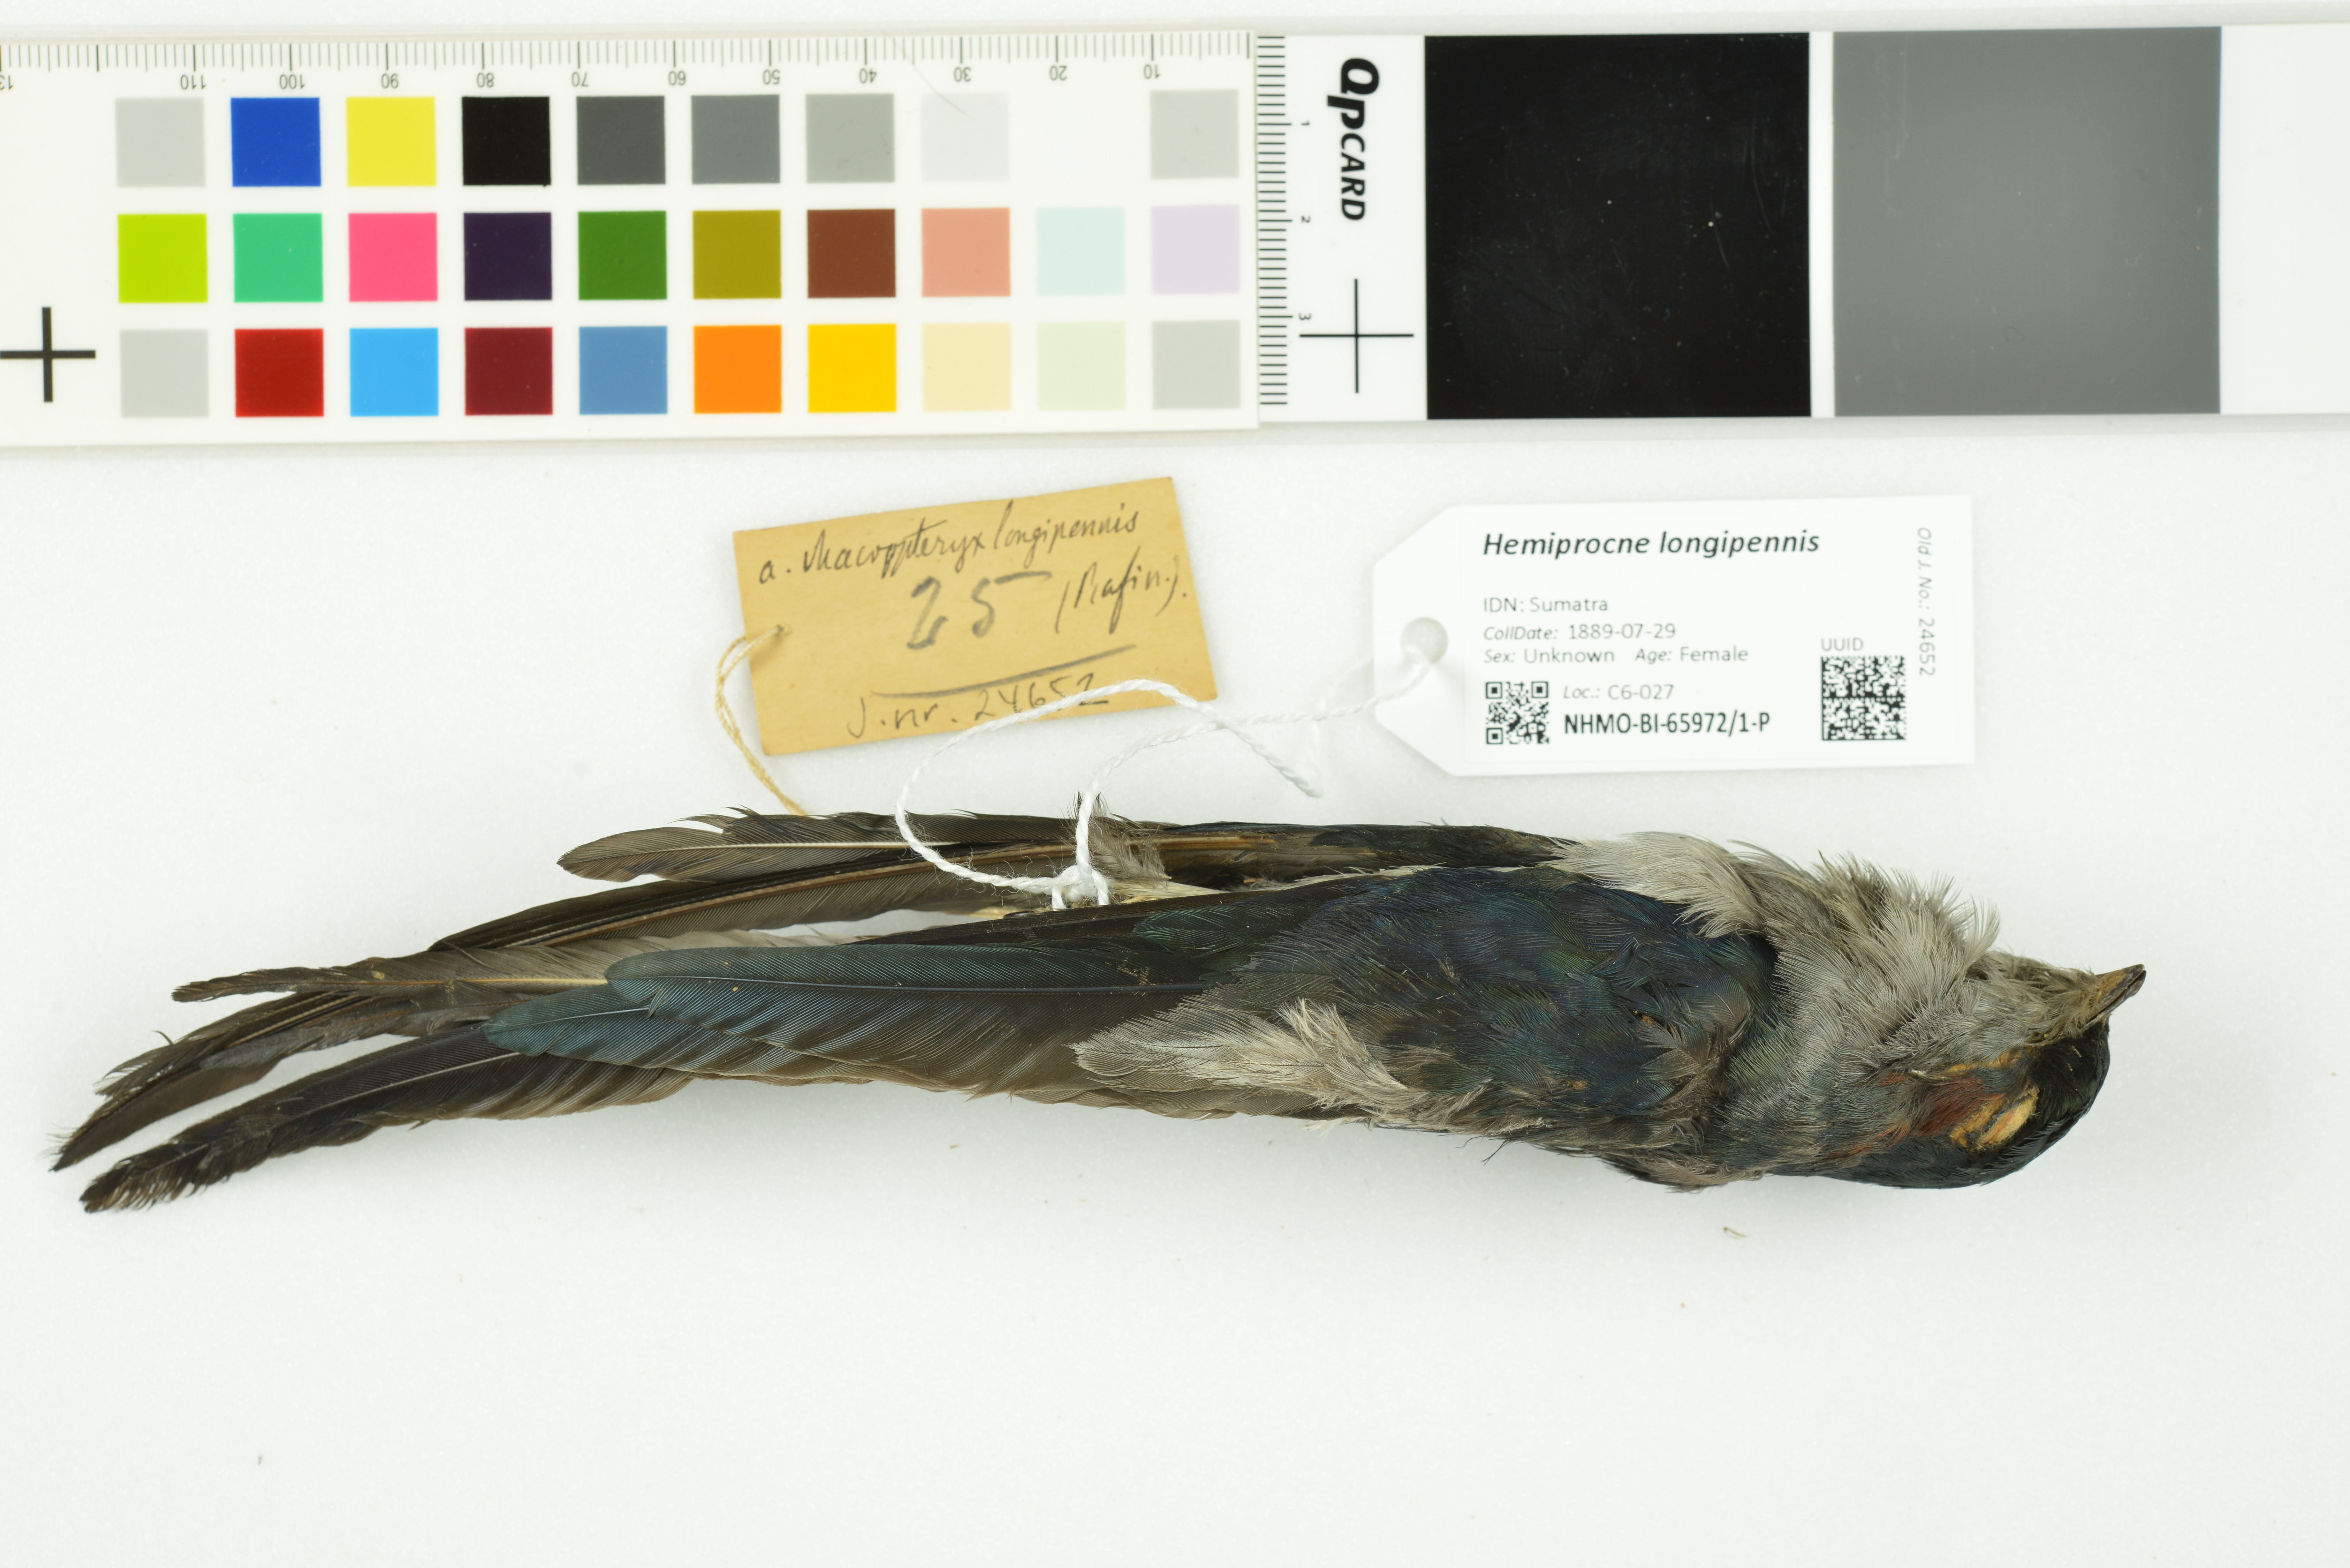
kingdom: Animalia
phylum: Chordata
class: Aves
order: Apodiformes
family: Hemiprocnidae
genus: Hemiprocne
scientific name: Hemiprocne longipennis
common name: Grey-rumped treeswift
